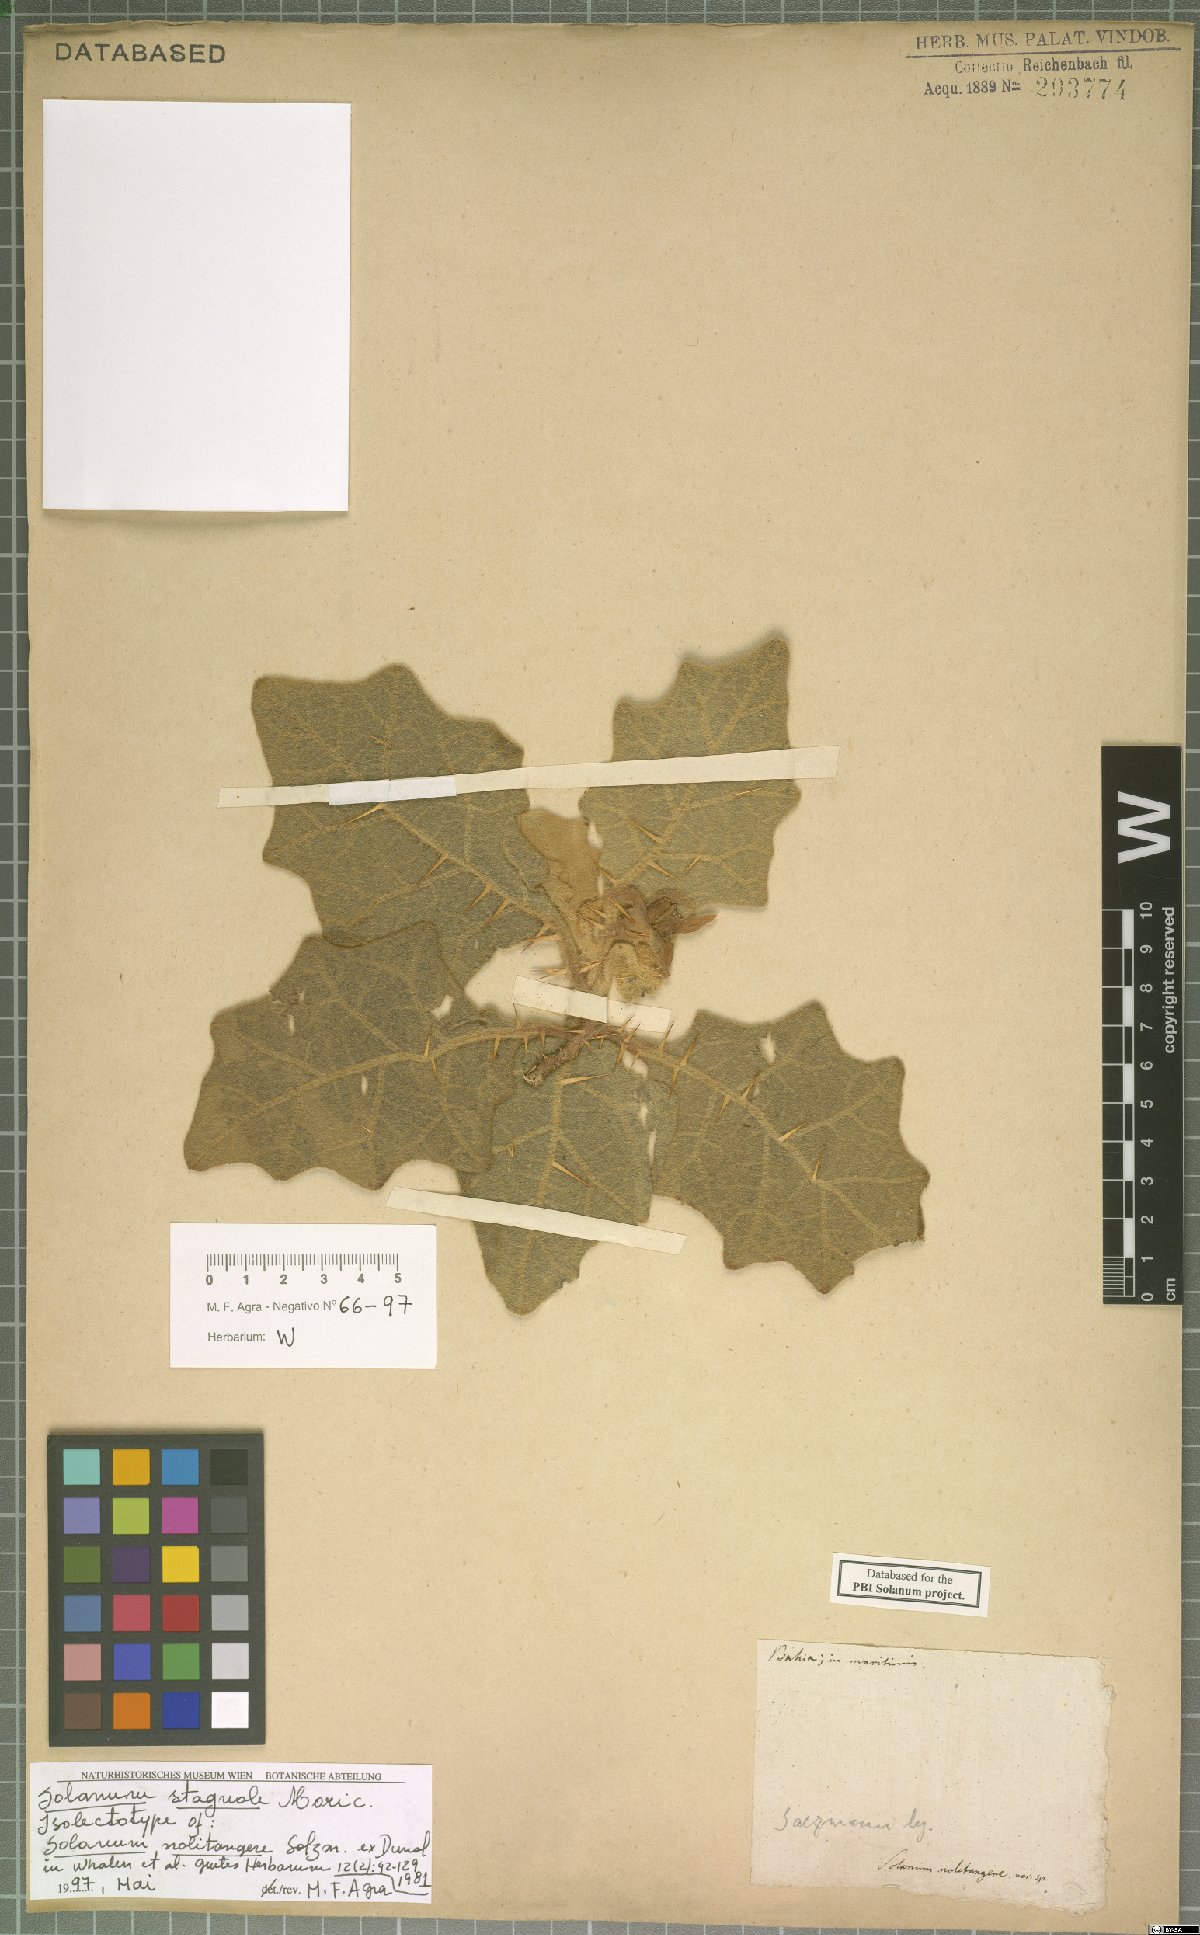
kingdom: Plantae
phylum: Tracheophyta
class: Magnoliopsida
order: Solanales
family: Solanaceae
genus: Solanum
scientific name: Solanum stagnale
